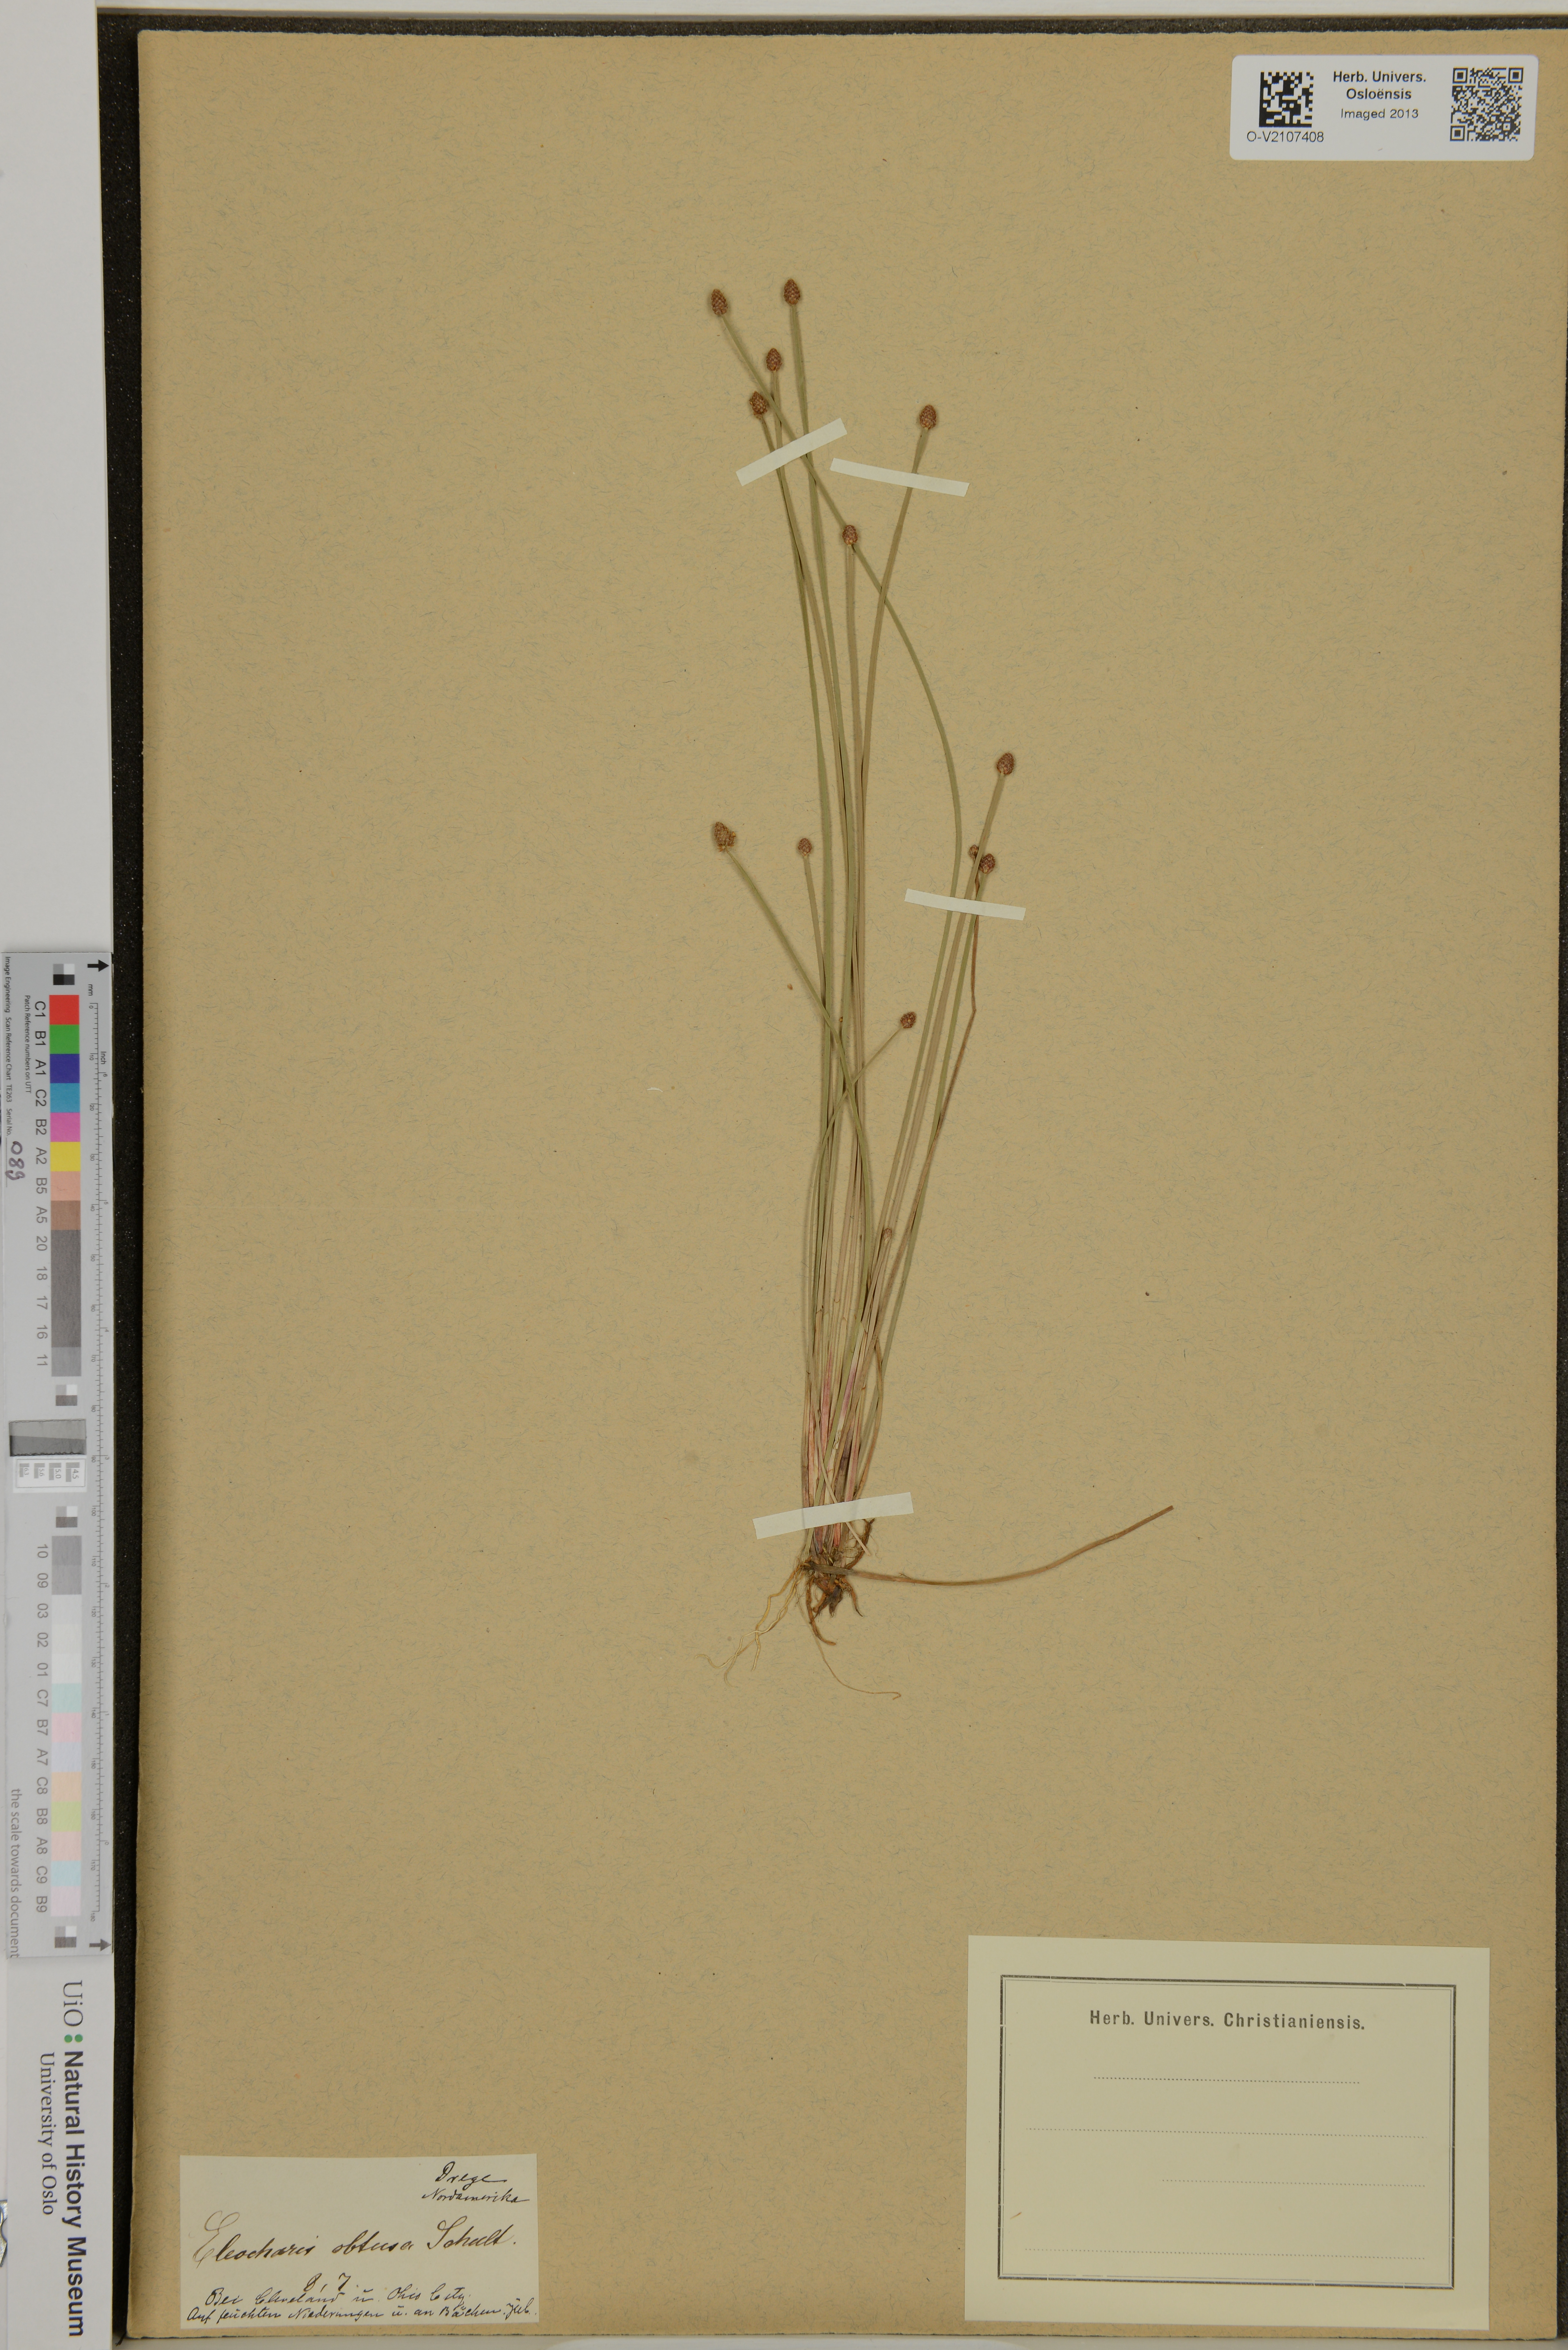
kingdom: Plantae
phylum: Tracheophyta
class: Liliopsida
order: Poales
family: Cyperaceae
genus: Eleocharis
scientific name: Eleocharis obtusa
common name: Blunt spikerush
